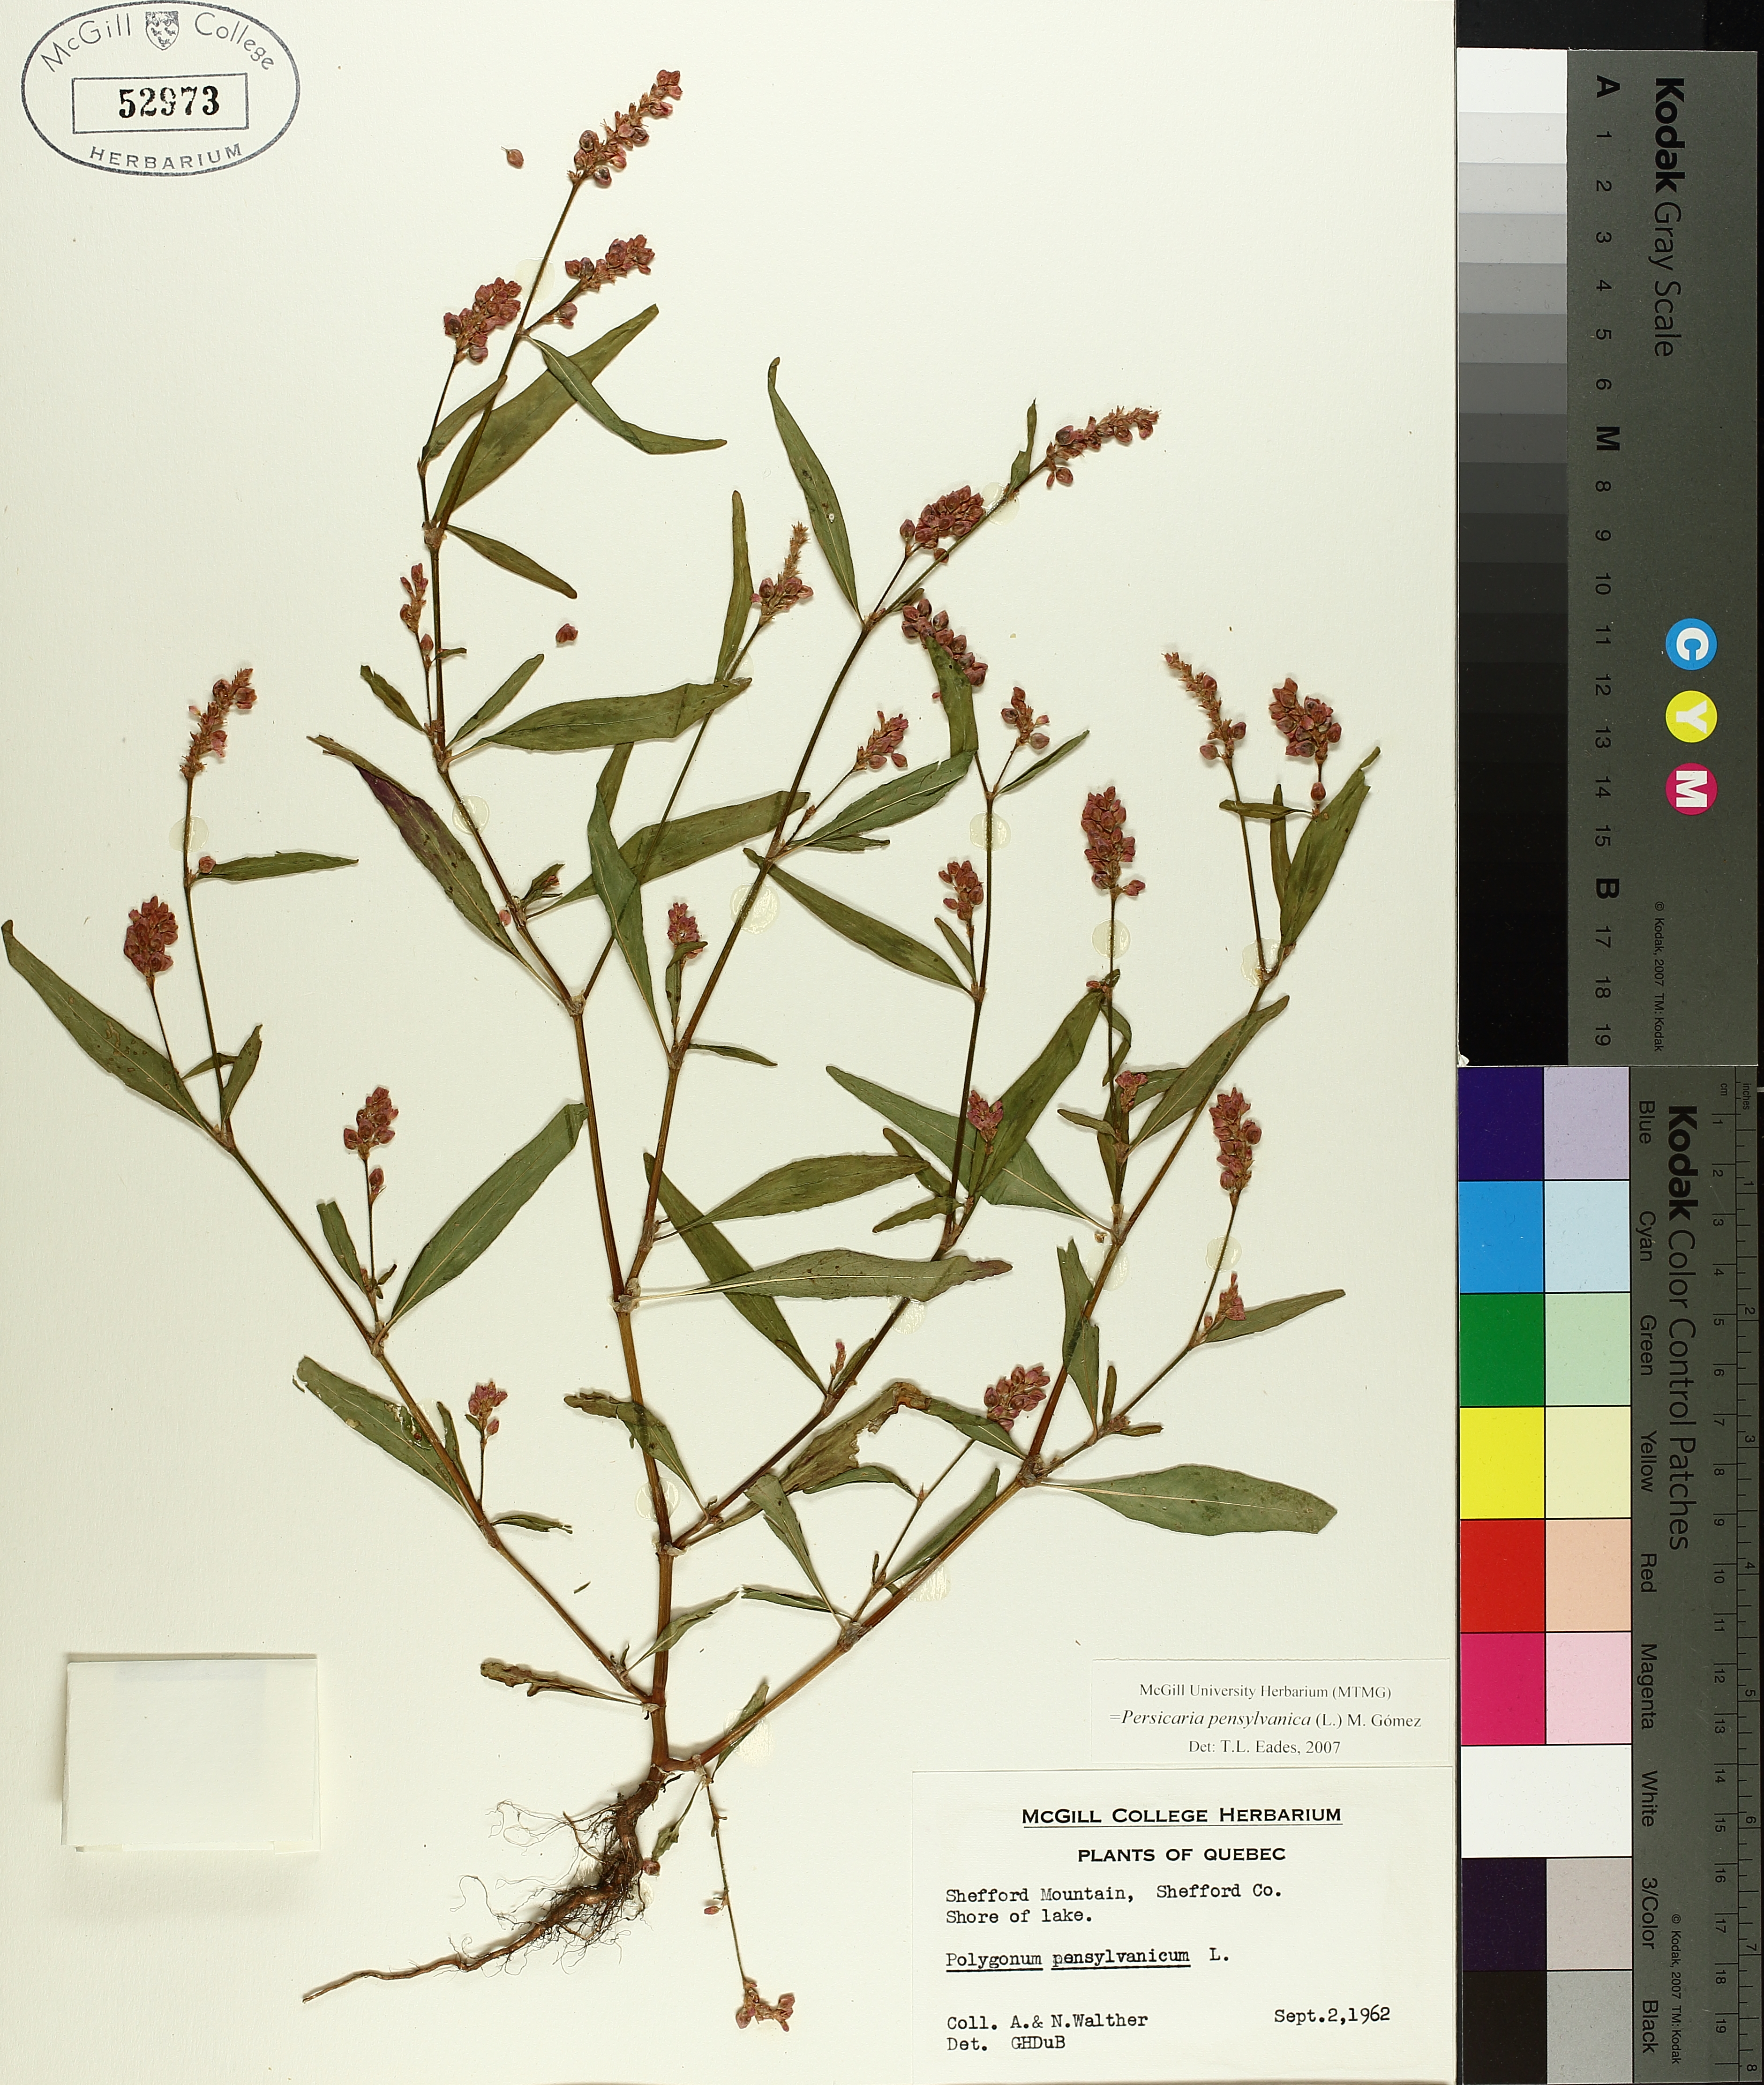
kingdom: Plantae
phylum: Tracheophyta
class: Magnoliopsida
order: Caryophyllales
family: Polygonaceae
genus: Persicaria
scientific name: Persicaria bungeana
